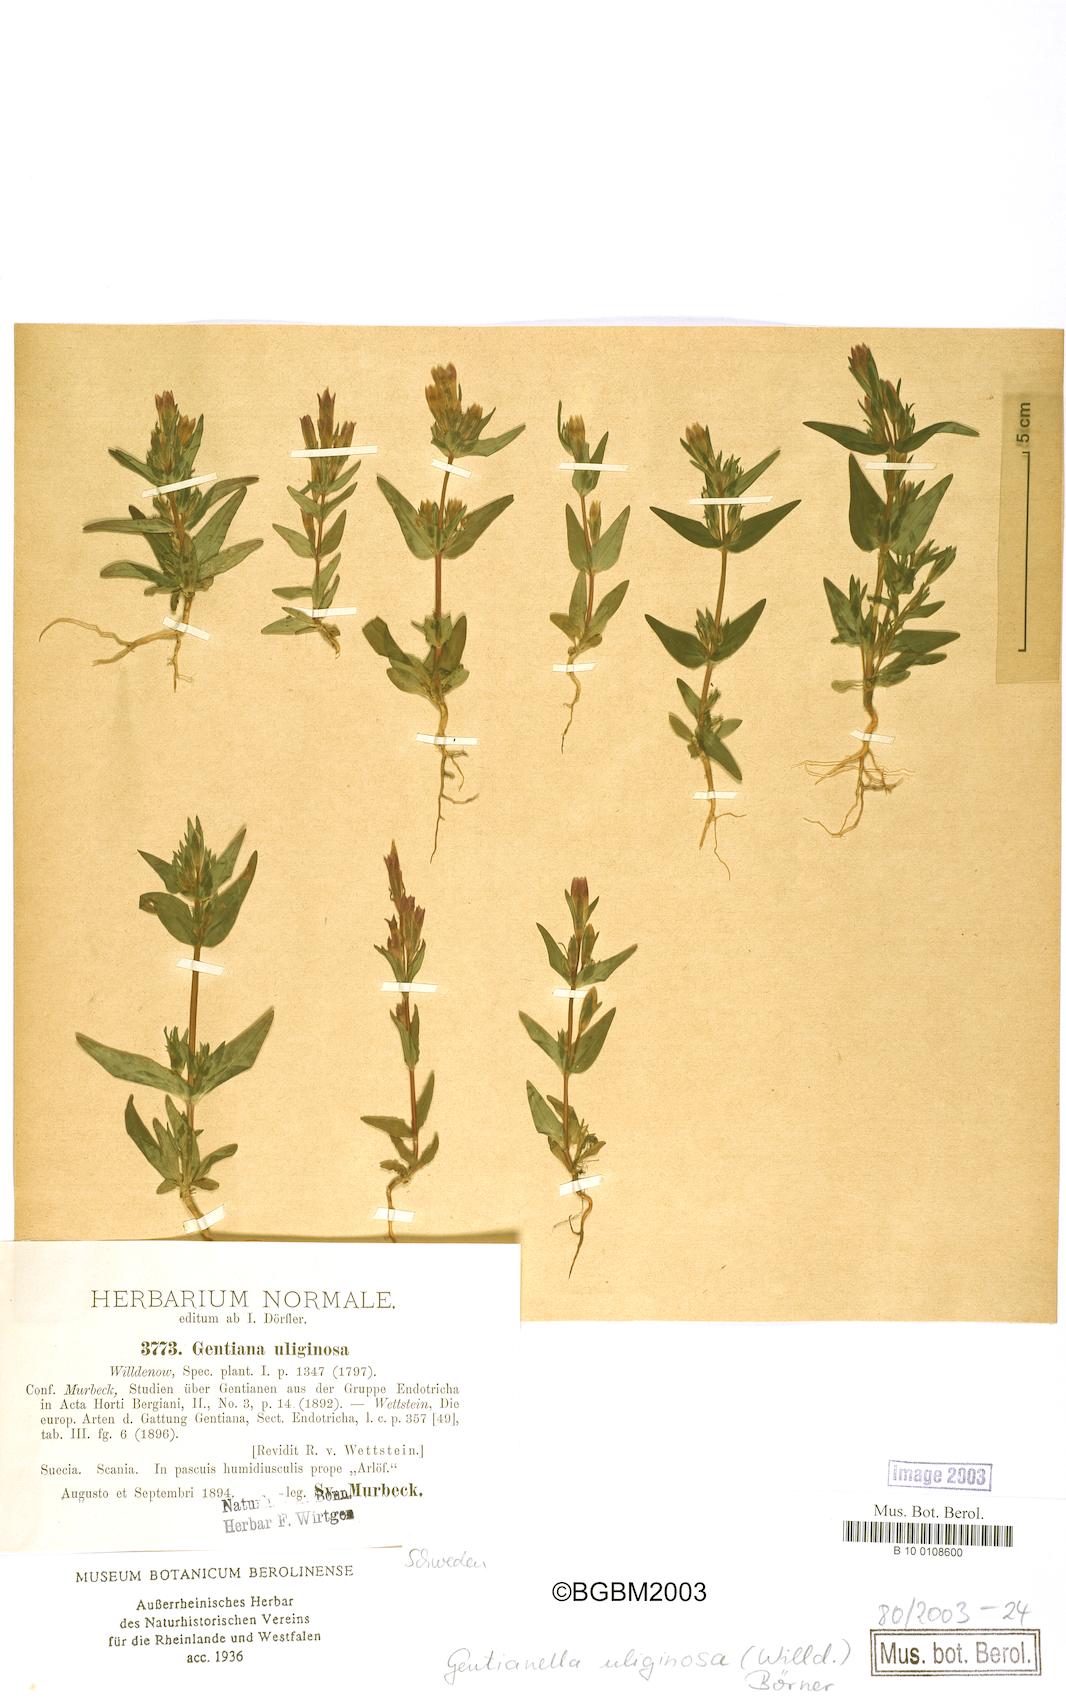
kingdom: Plantae
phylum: Tracheophyta
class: Magnoliopsida
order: Gentianales
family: Gentianaceae
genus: Gentianella
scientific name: Gentianella uliginosa
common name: Dune gentian
